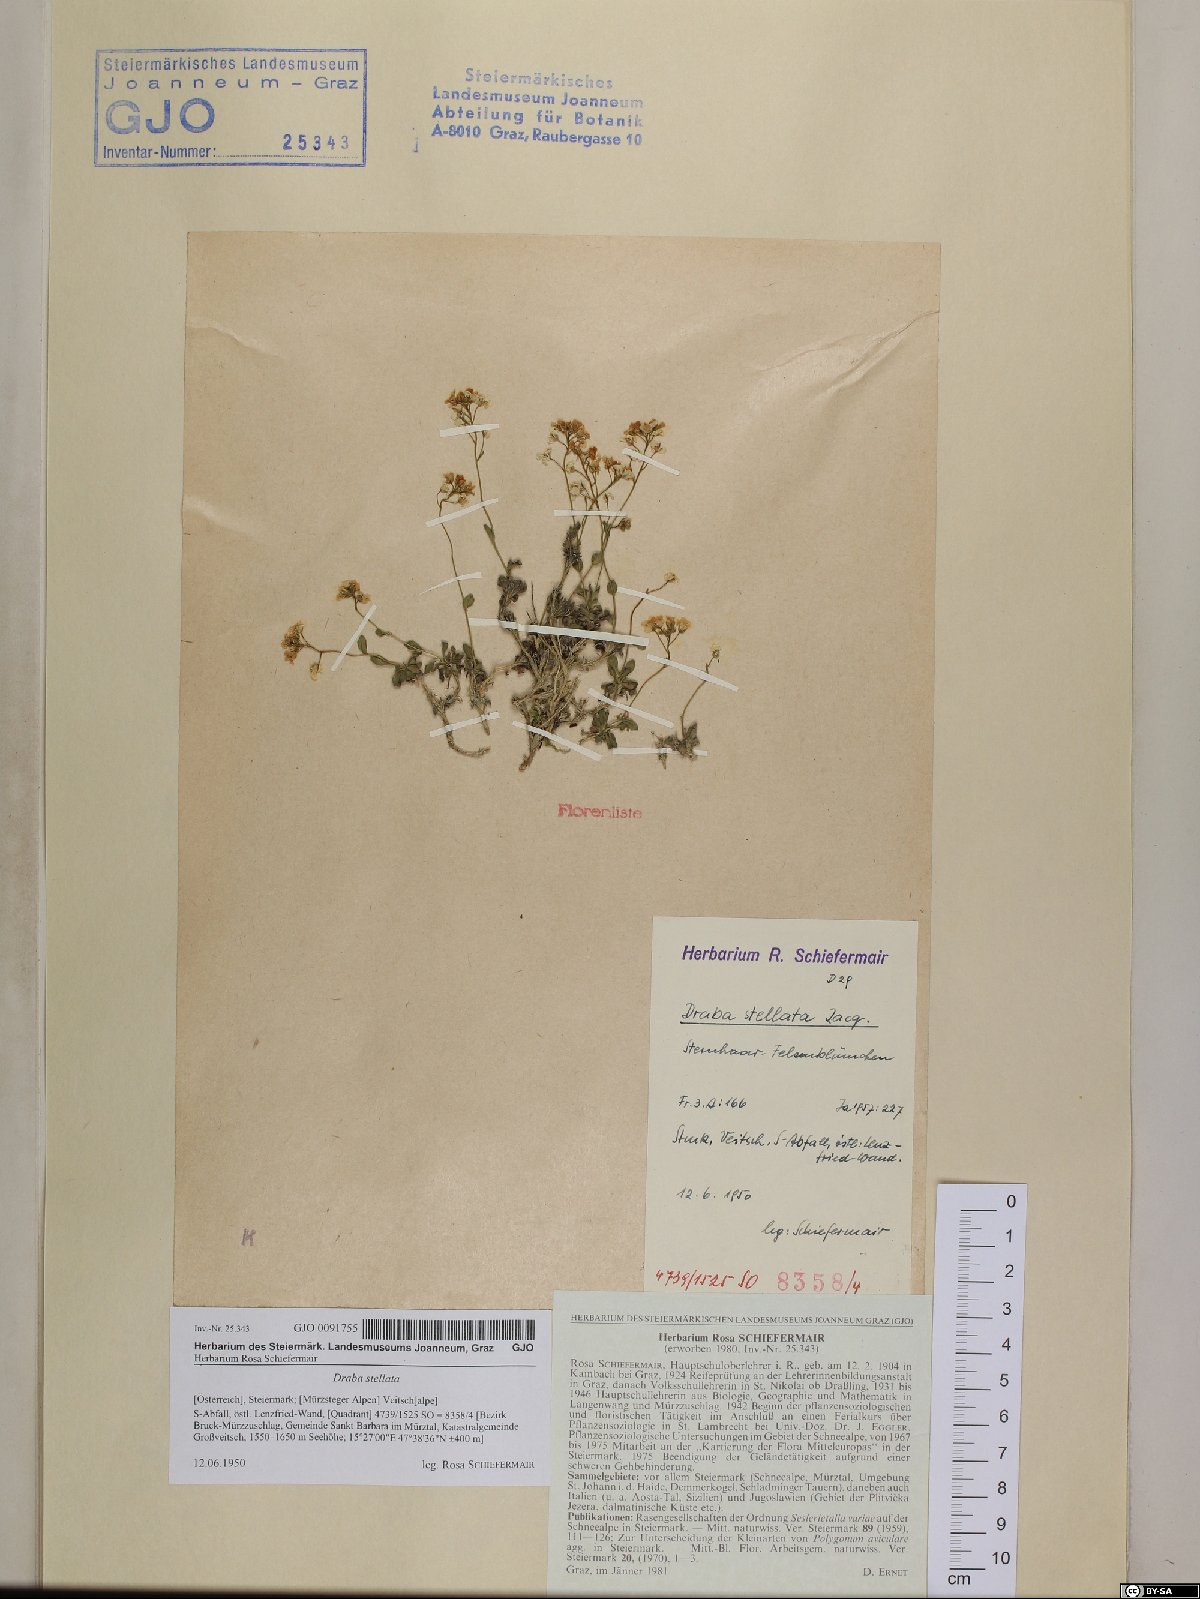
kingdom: Plantae
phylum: Tracheophyta
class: Magnoliopsida
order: Brassicales
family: Brassicaceae
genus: Draba
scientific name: Draba stellata
